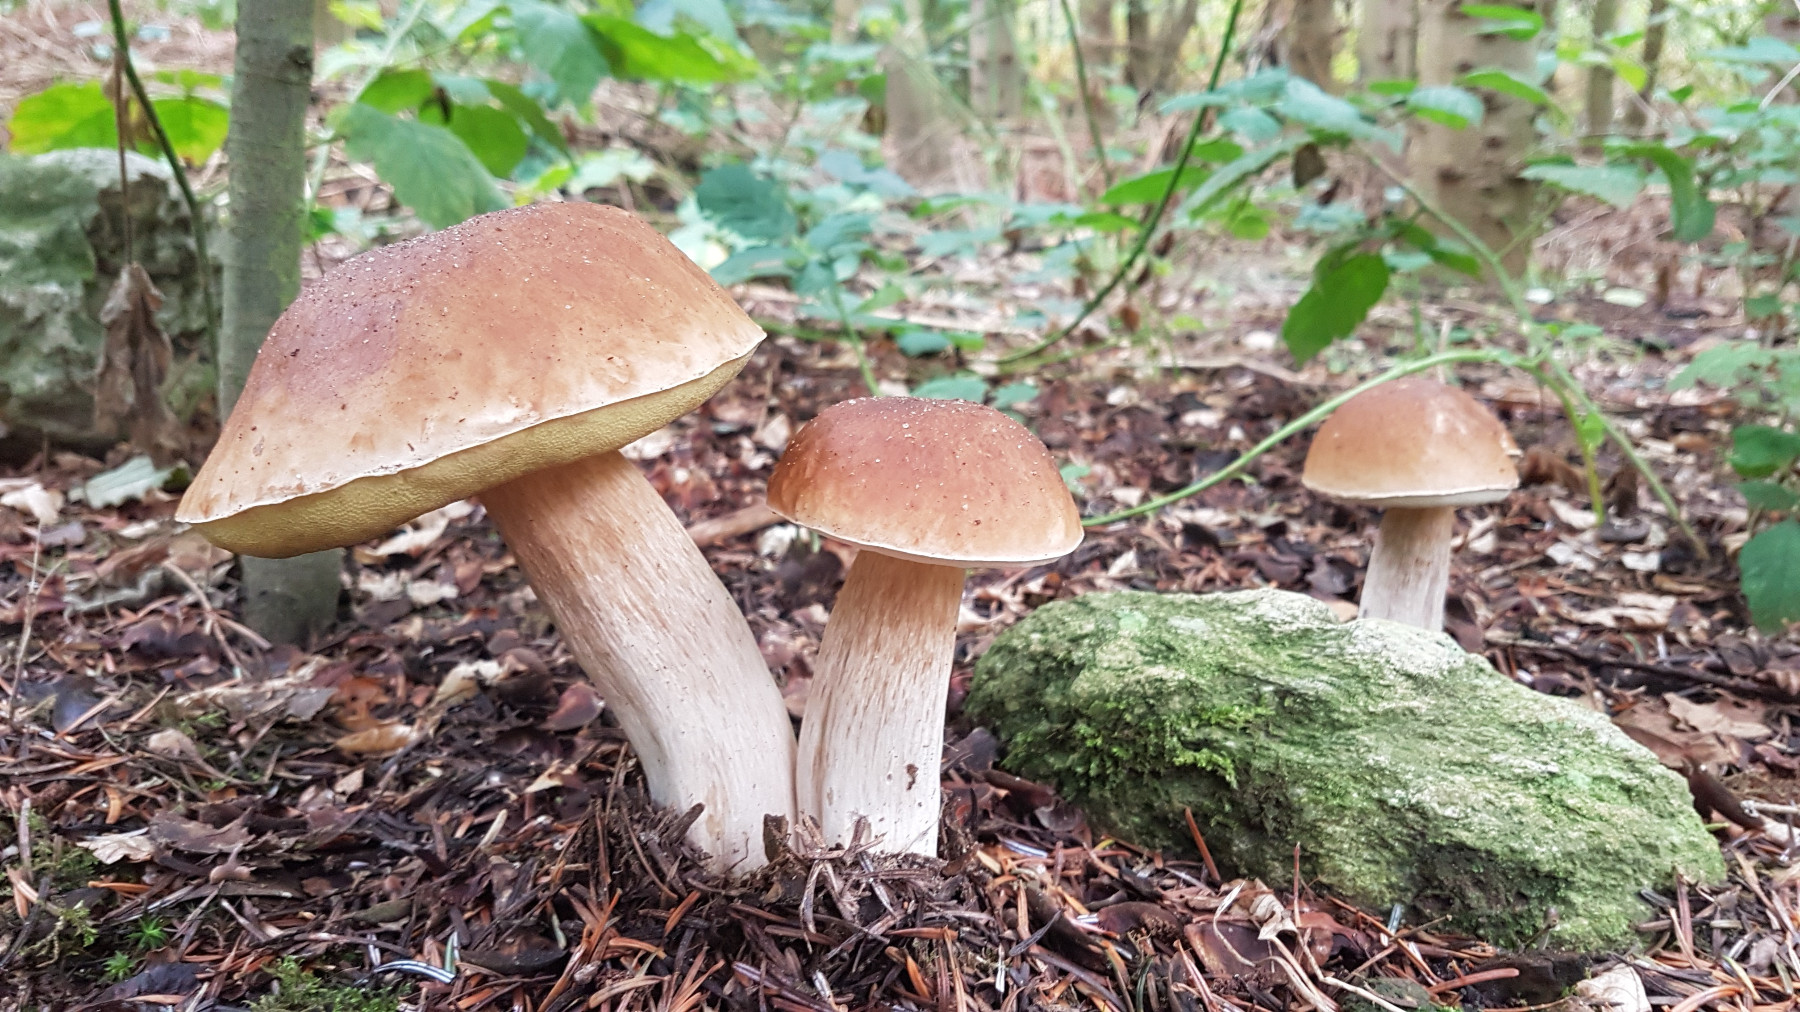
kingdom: Fungi
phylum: Basidiomycota
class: Agaricomycetes
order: Boletales
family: Boletaceae
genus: Boletus
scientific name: Boletus edulis
